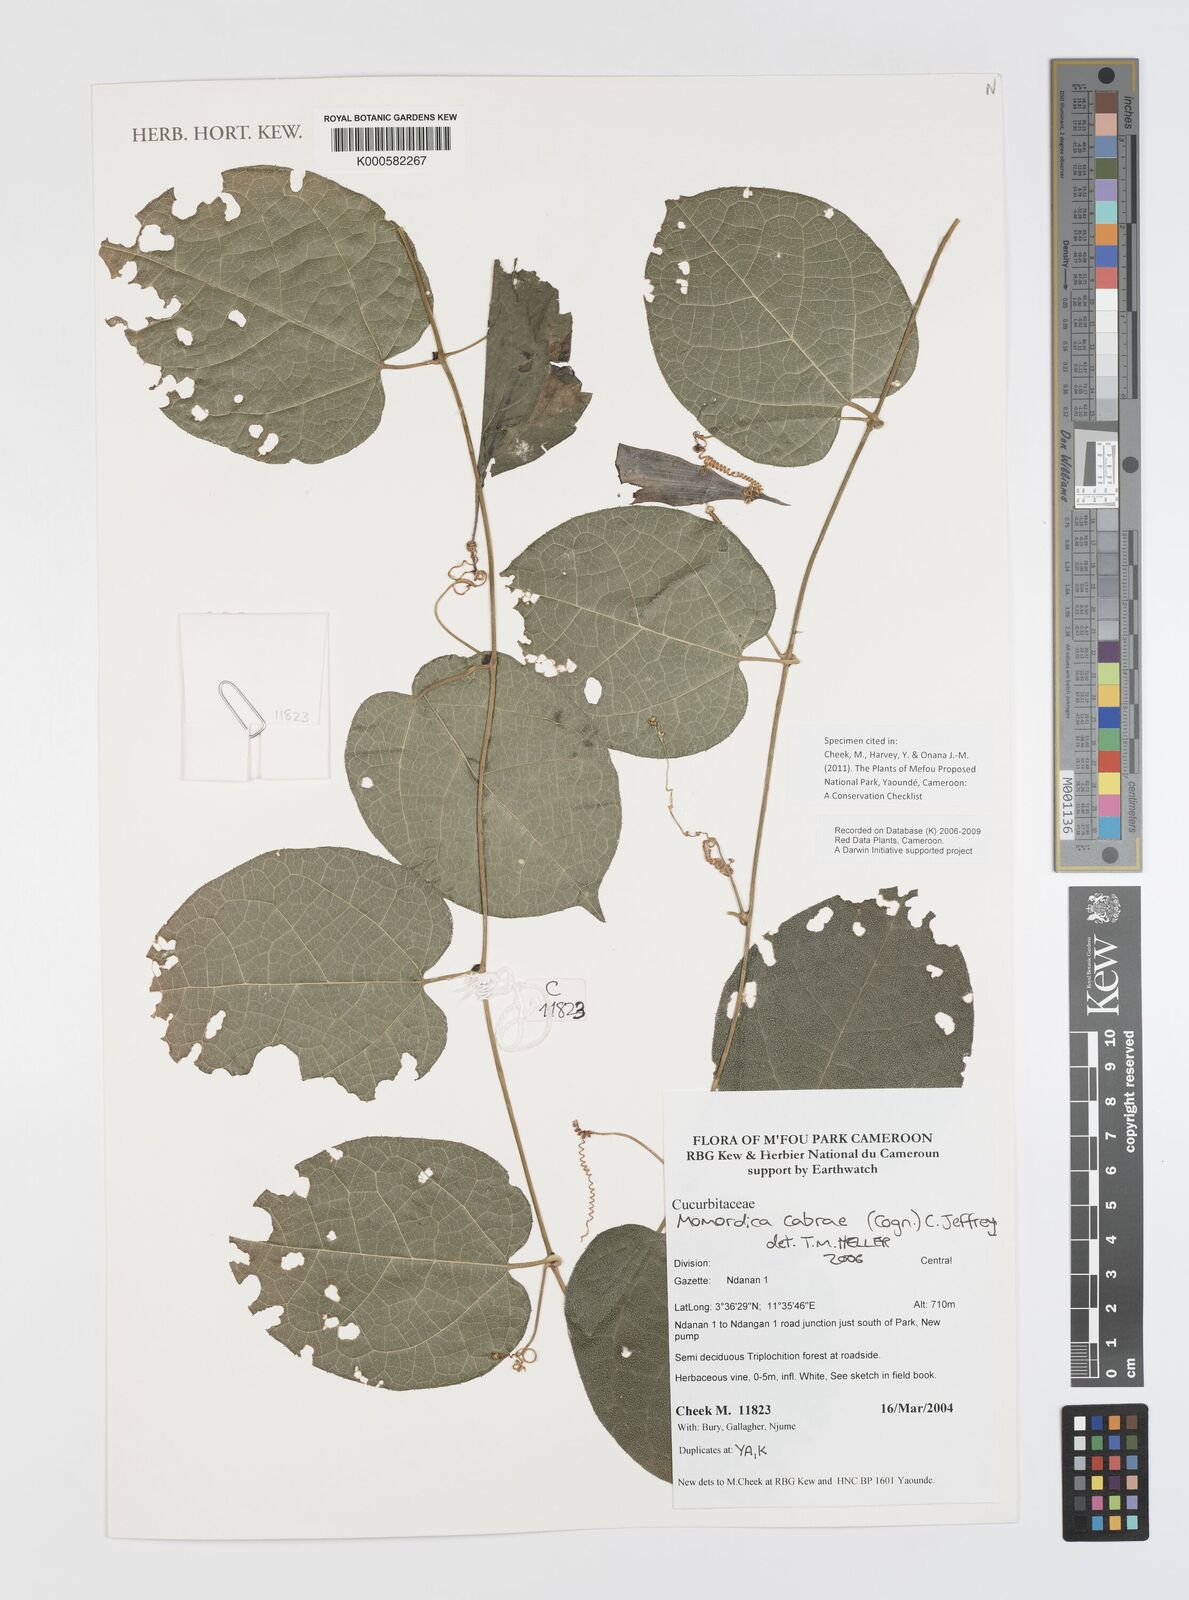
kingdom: Plantae
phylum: Tracheophyta
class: Magnoliopsida
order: Cucurbitales
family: Cucurbitaceae
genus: Momordica
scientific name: Momordica
